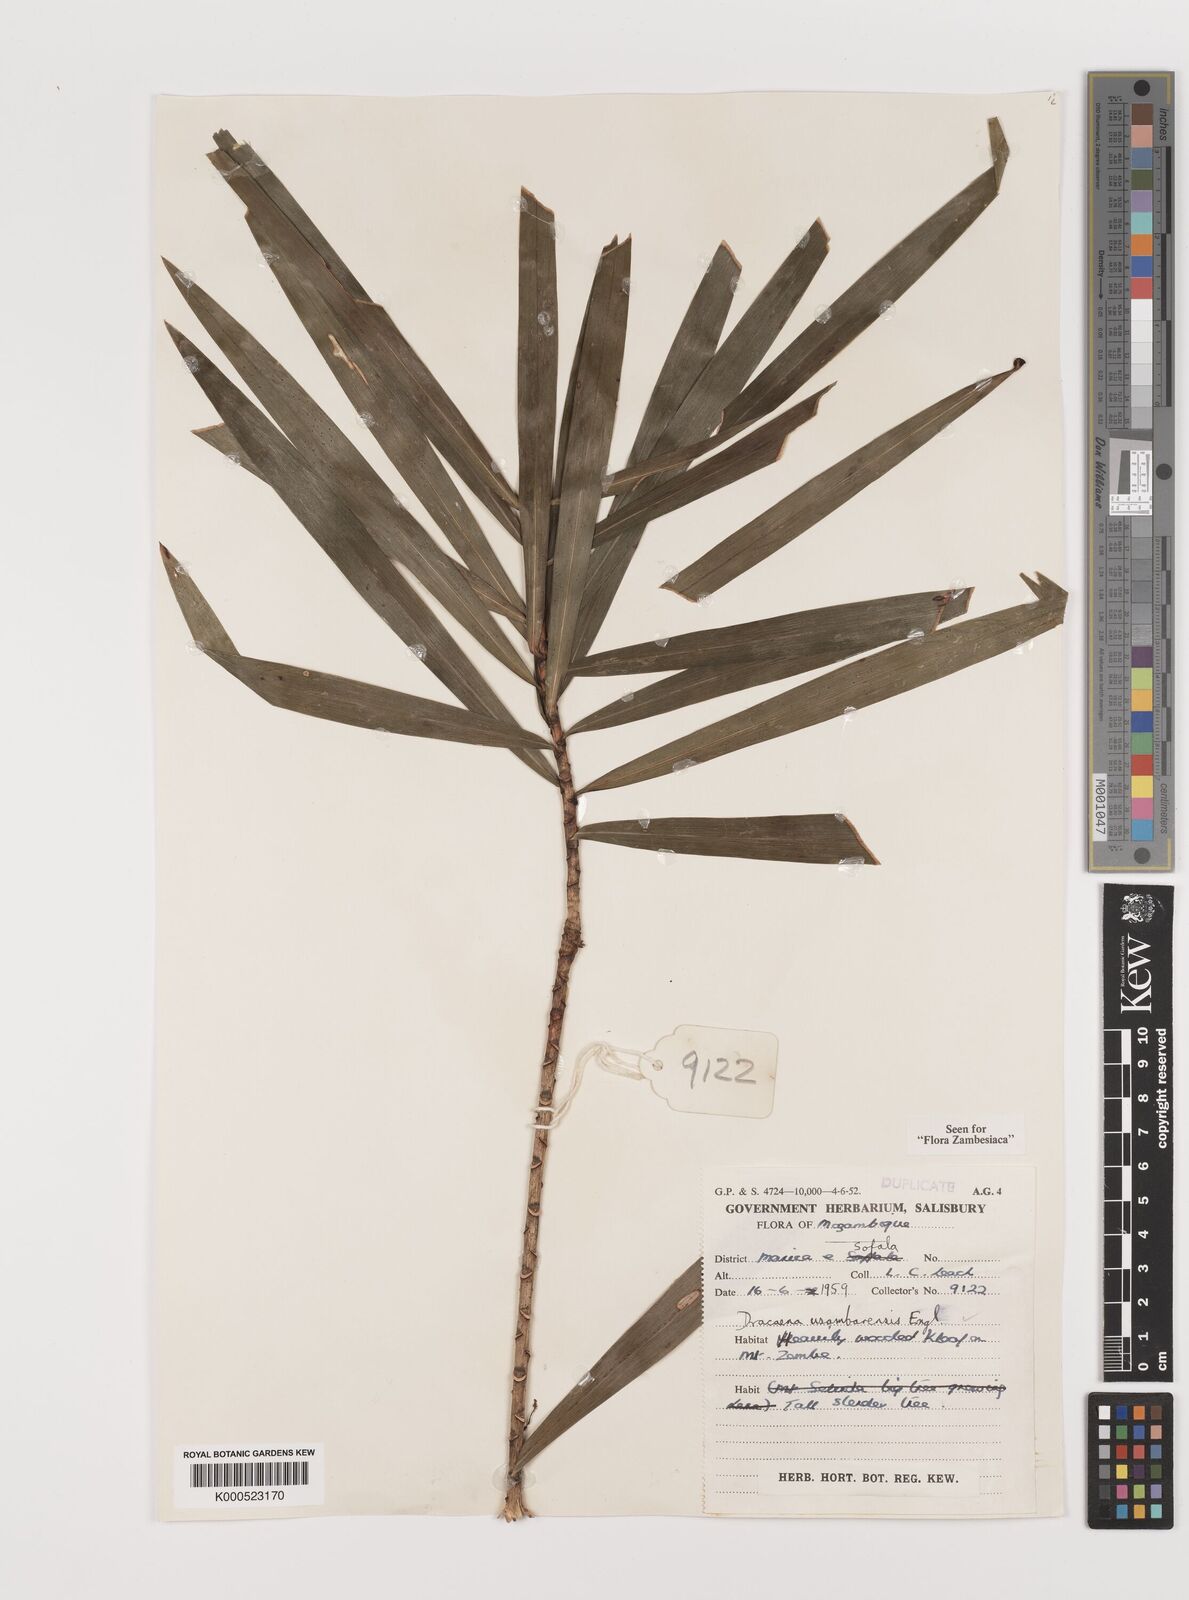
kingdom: Plantae
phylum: Tracheophyta
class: Liliopsida
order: Asparagales
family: Asparagaceae
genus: Dracaena
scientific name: Dracaena usambarensis
